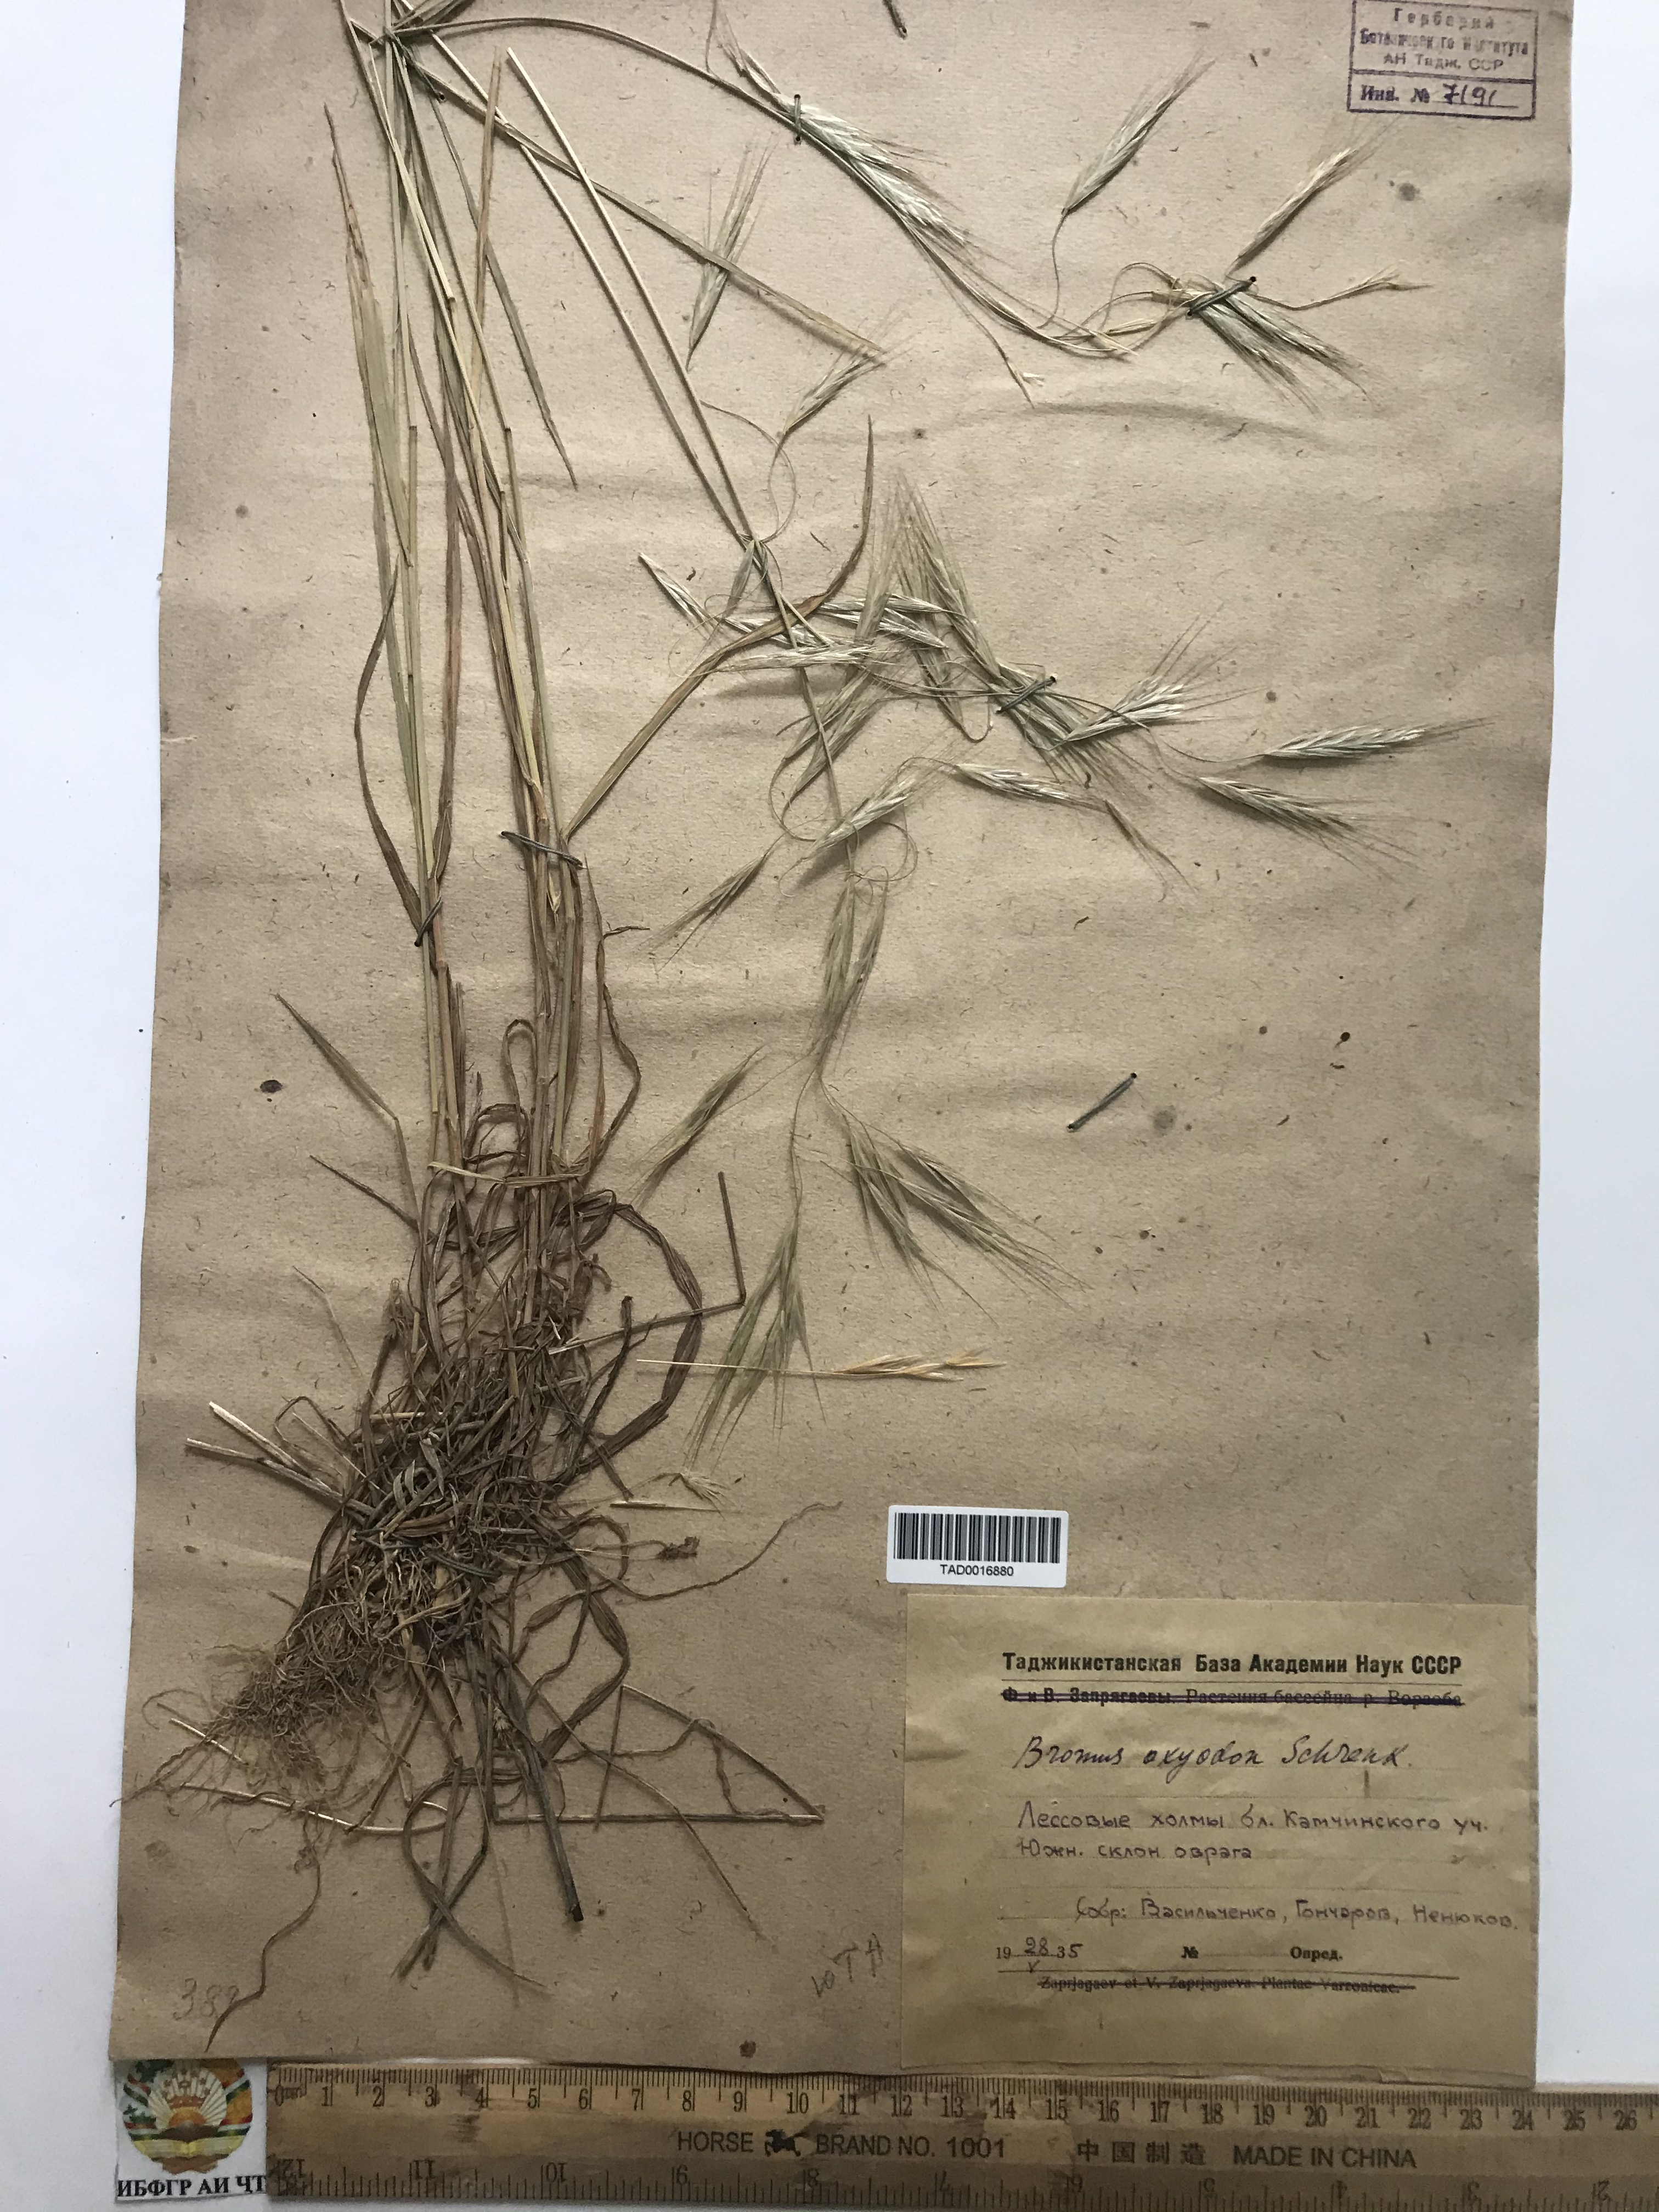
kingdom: Plantae
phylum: Tracheophyta
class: Liliopsida
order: Poales
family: Poaceae
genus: Bromus
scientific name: Bromus oxyodon
